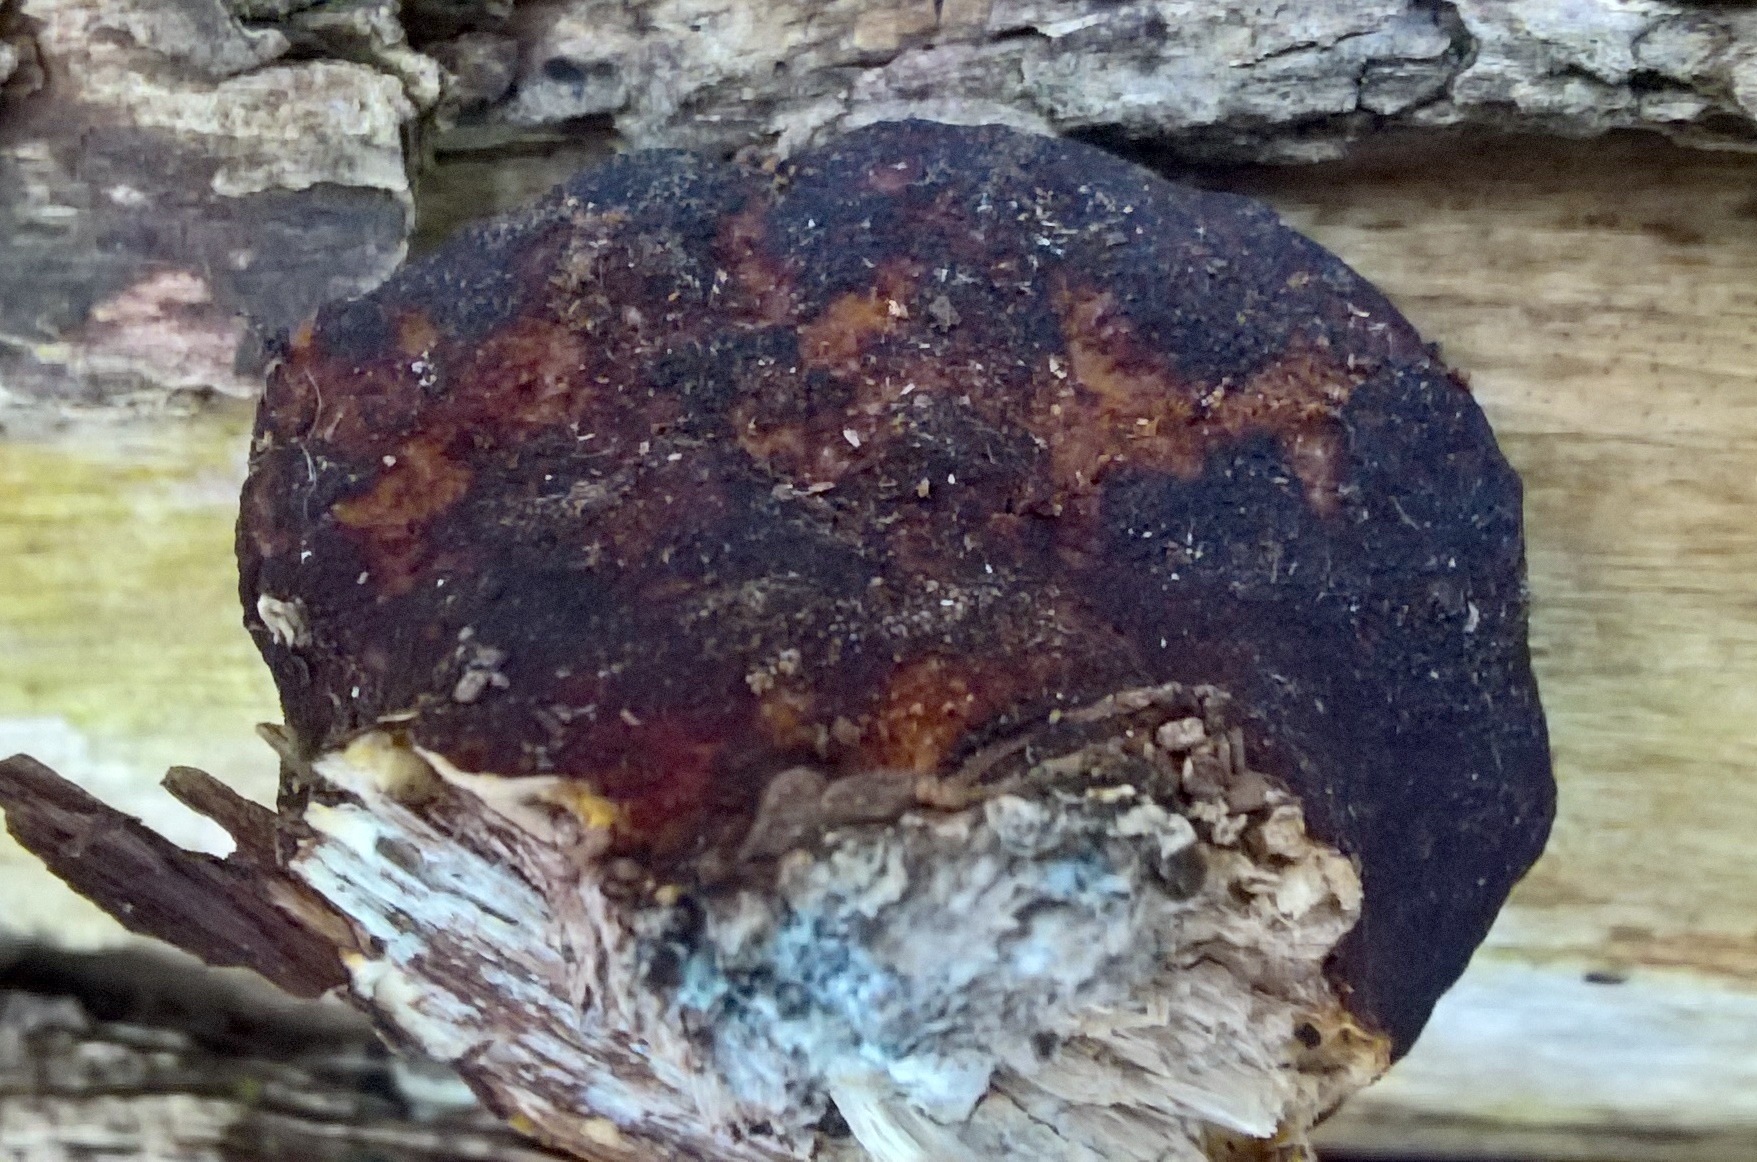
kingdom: Fungi
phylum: Basidiomycota
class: Agaricomycetes
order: Polyporales
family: Polyporaceae
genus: Daedaleopsis
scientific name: Daedaleopsis confragosa
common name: rødmende læderporesvamp
